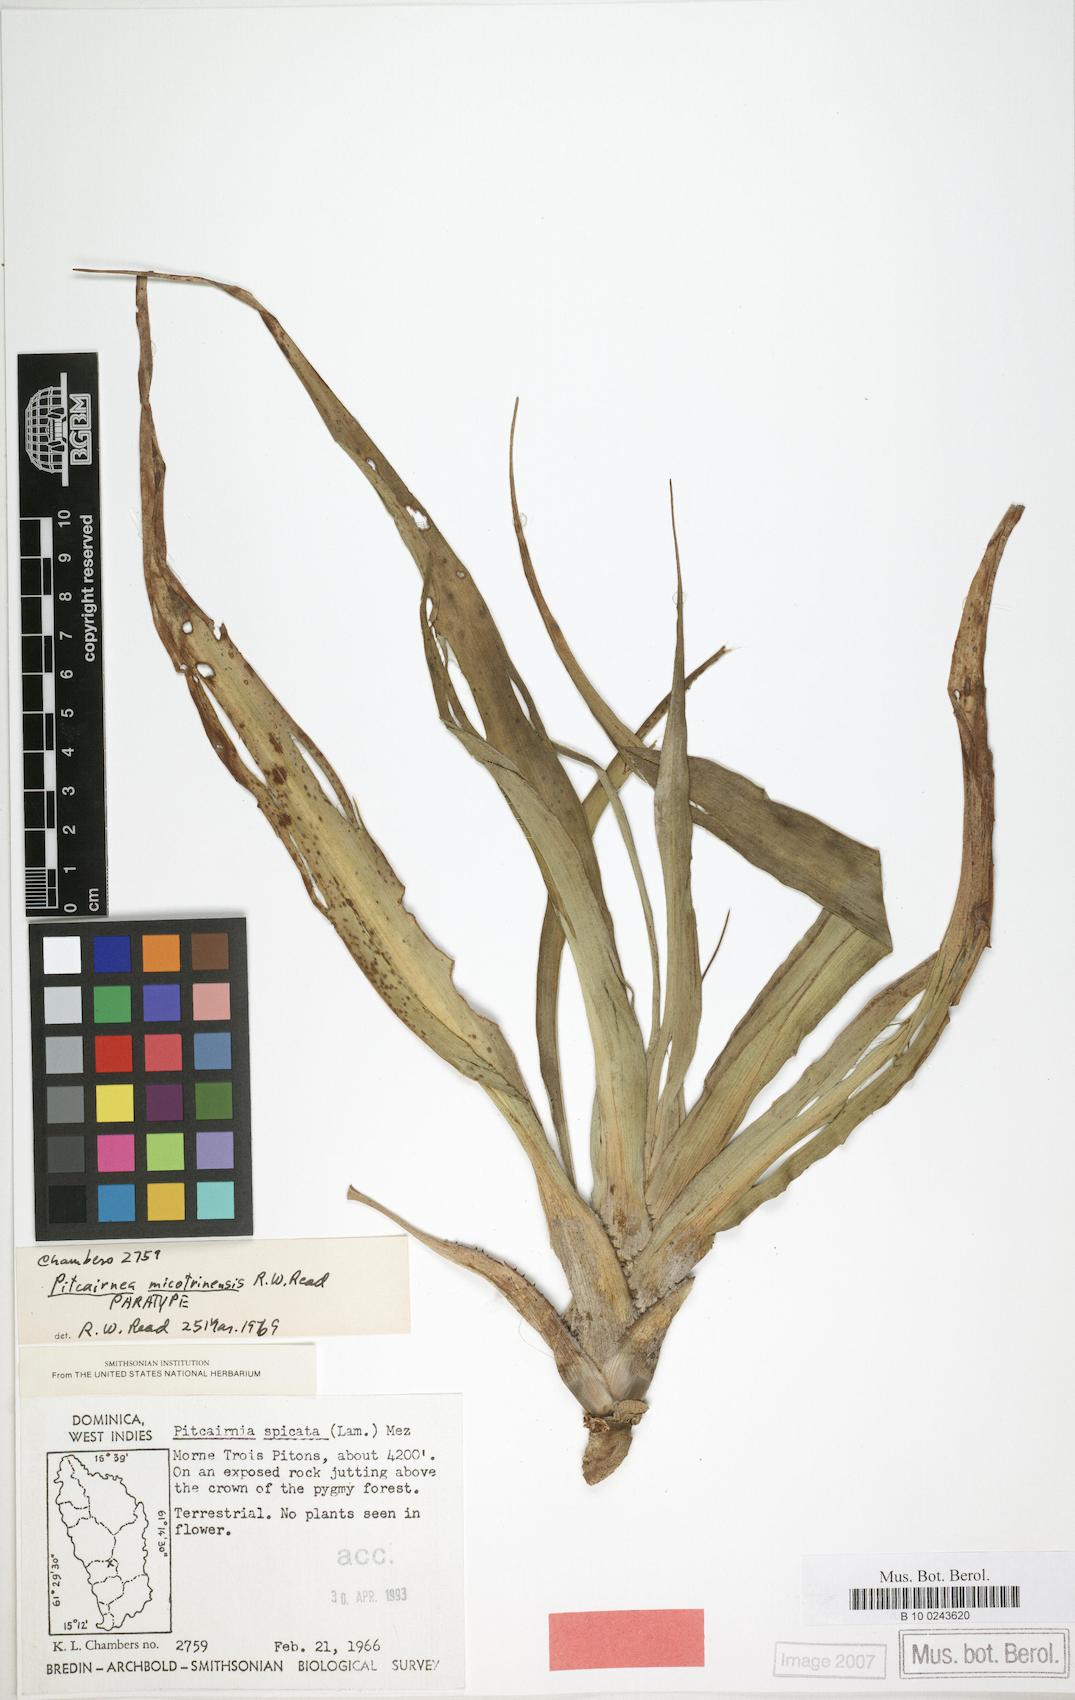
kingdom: Plantae
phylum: Tracheophyta
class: Liliopsida
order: Poales
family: Bromeliaceae
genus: Pitcairnia
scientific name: Pitcairnia micotrinensis
